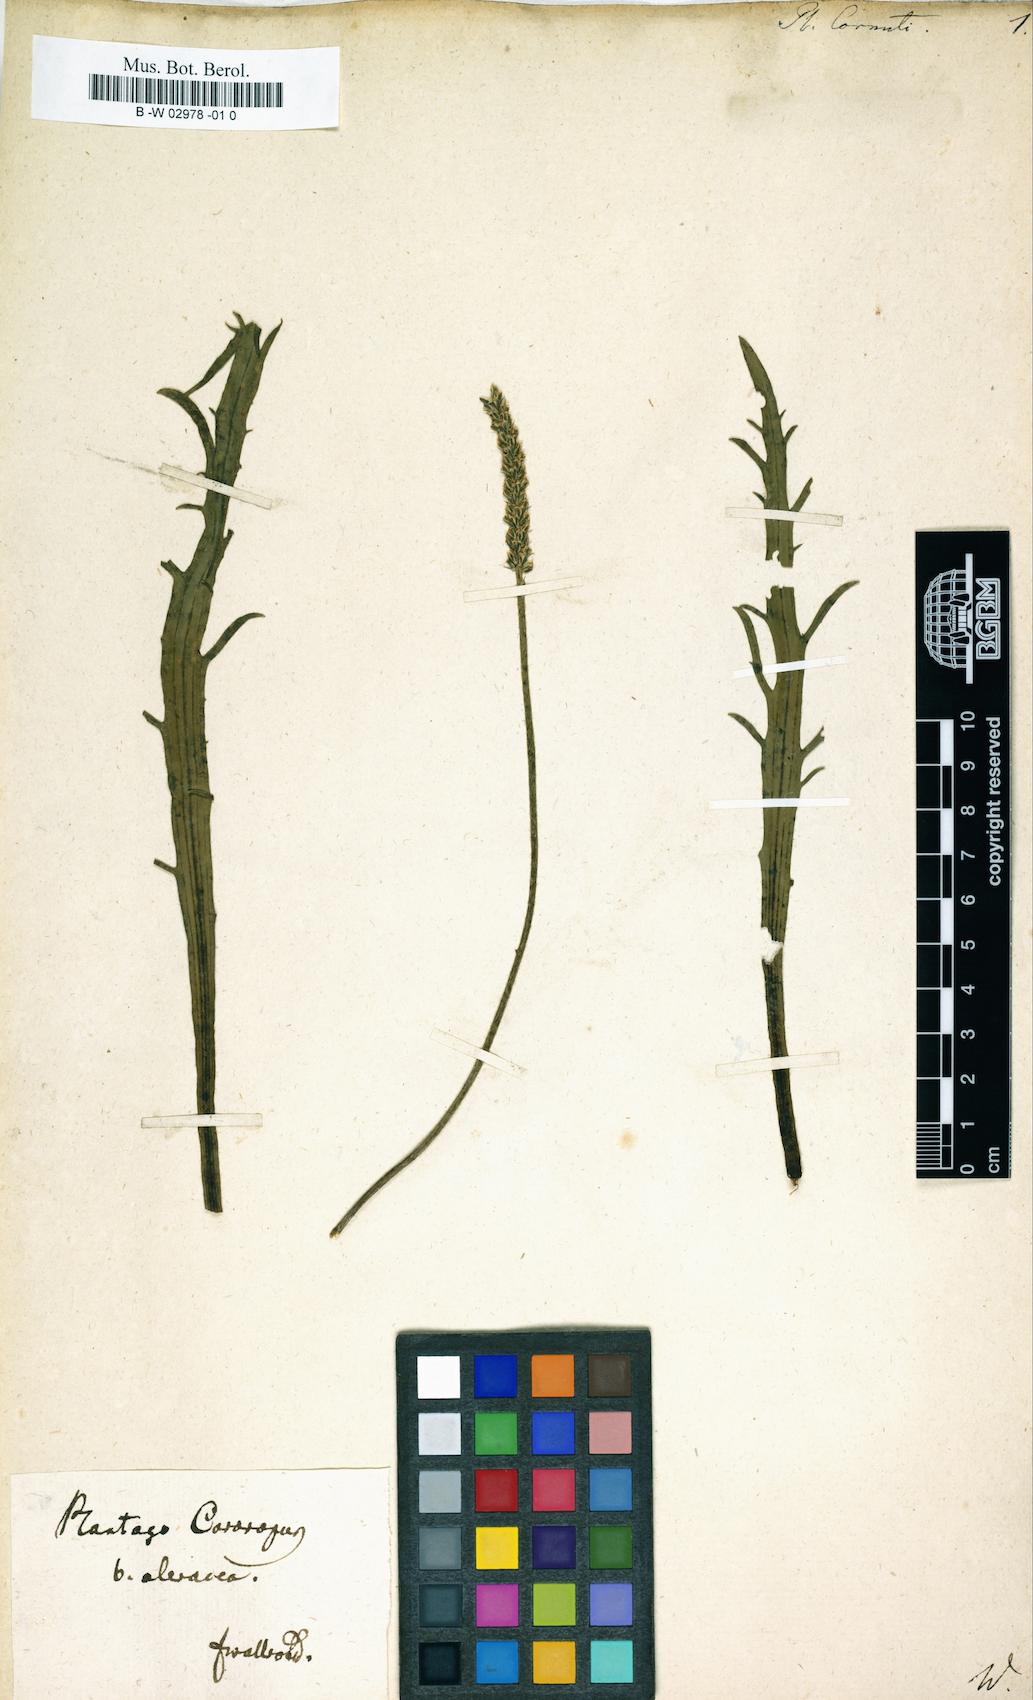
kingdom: Plantae
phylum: Tracheophyta
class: Magnoliopsida
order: Lamiales
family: Plantaginaceae
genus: Plantago
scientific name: Plantago cornuti
